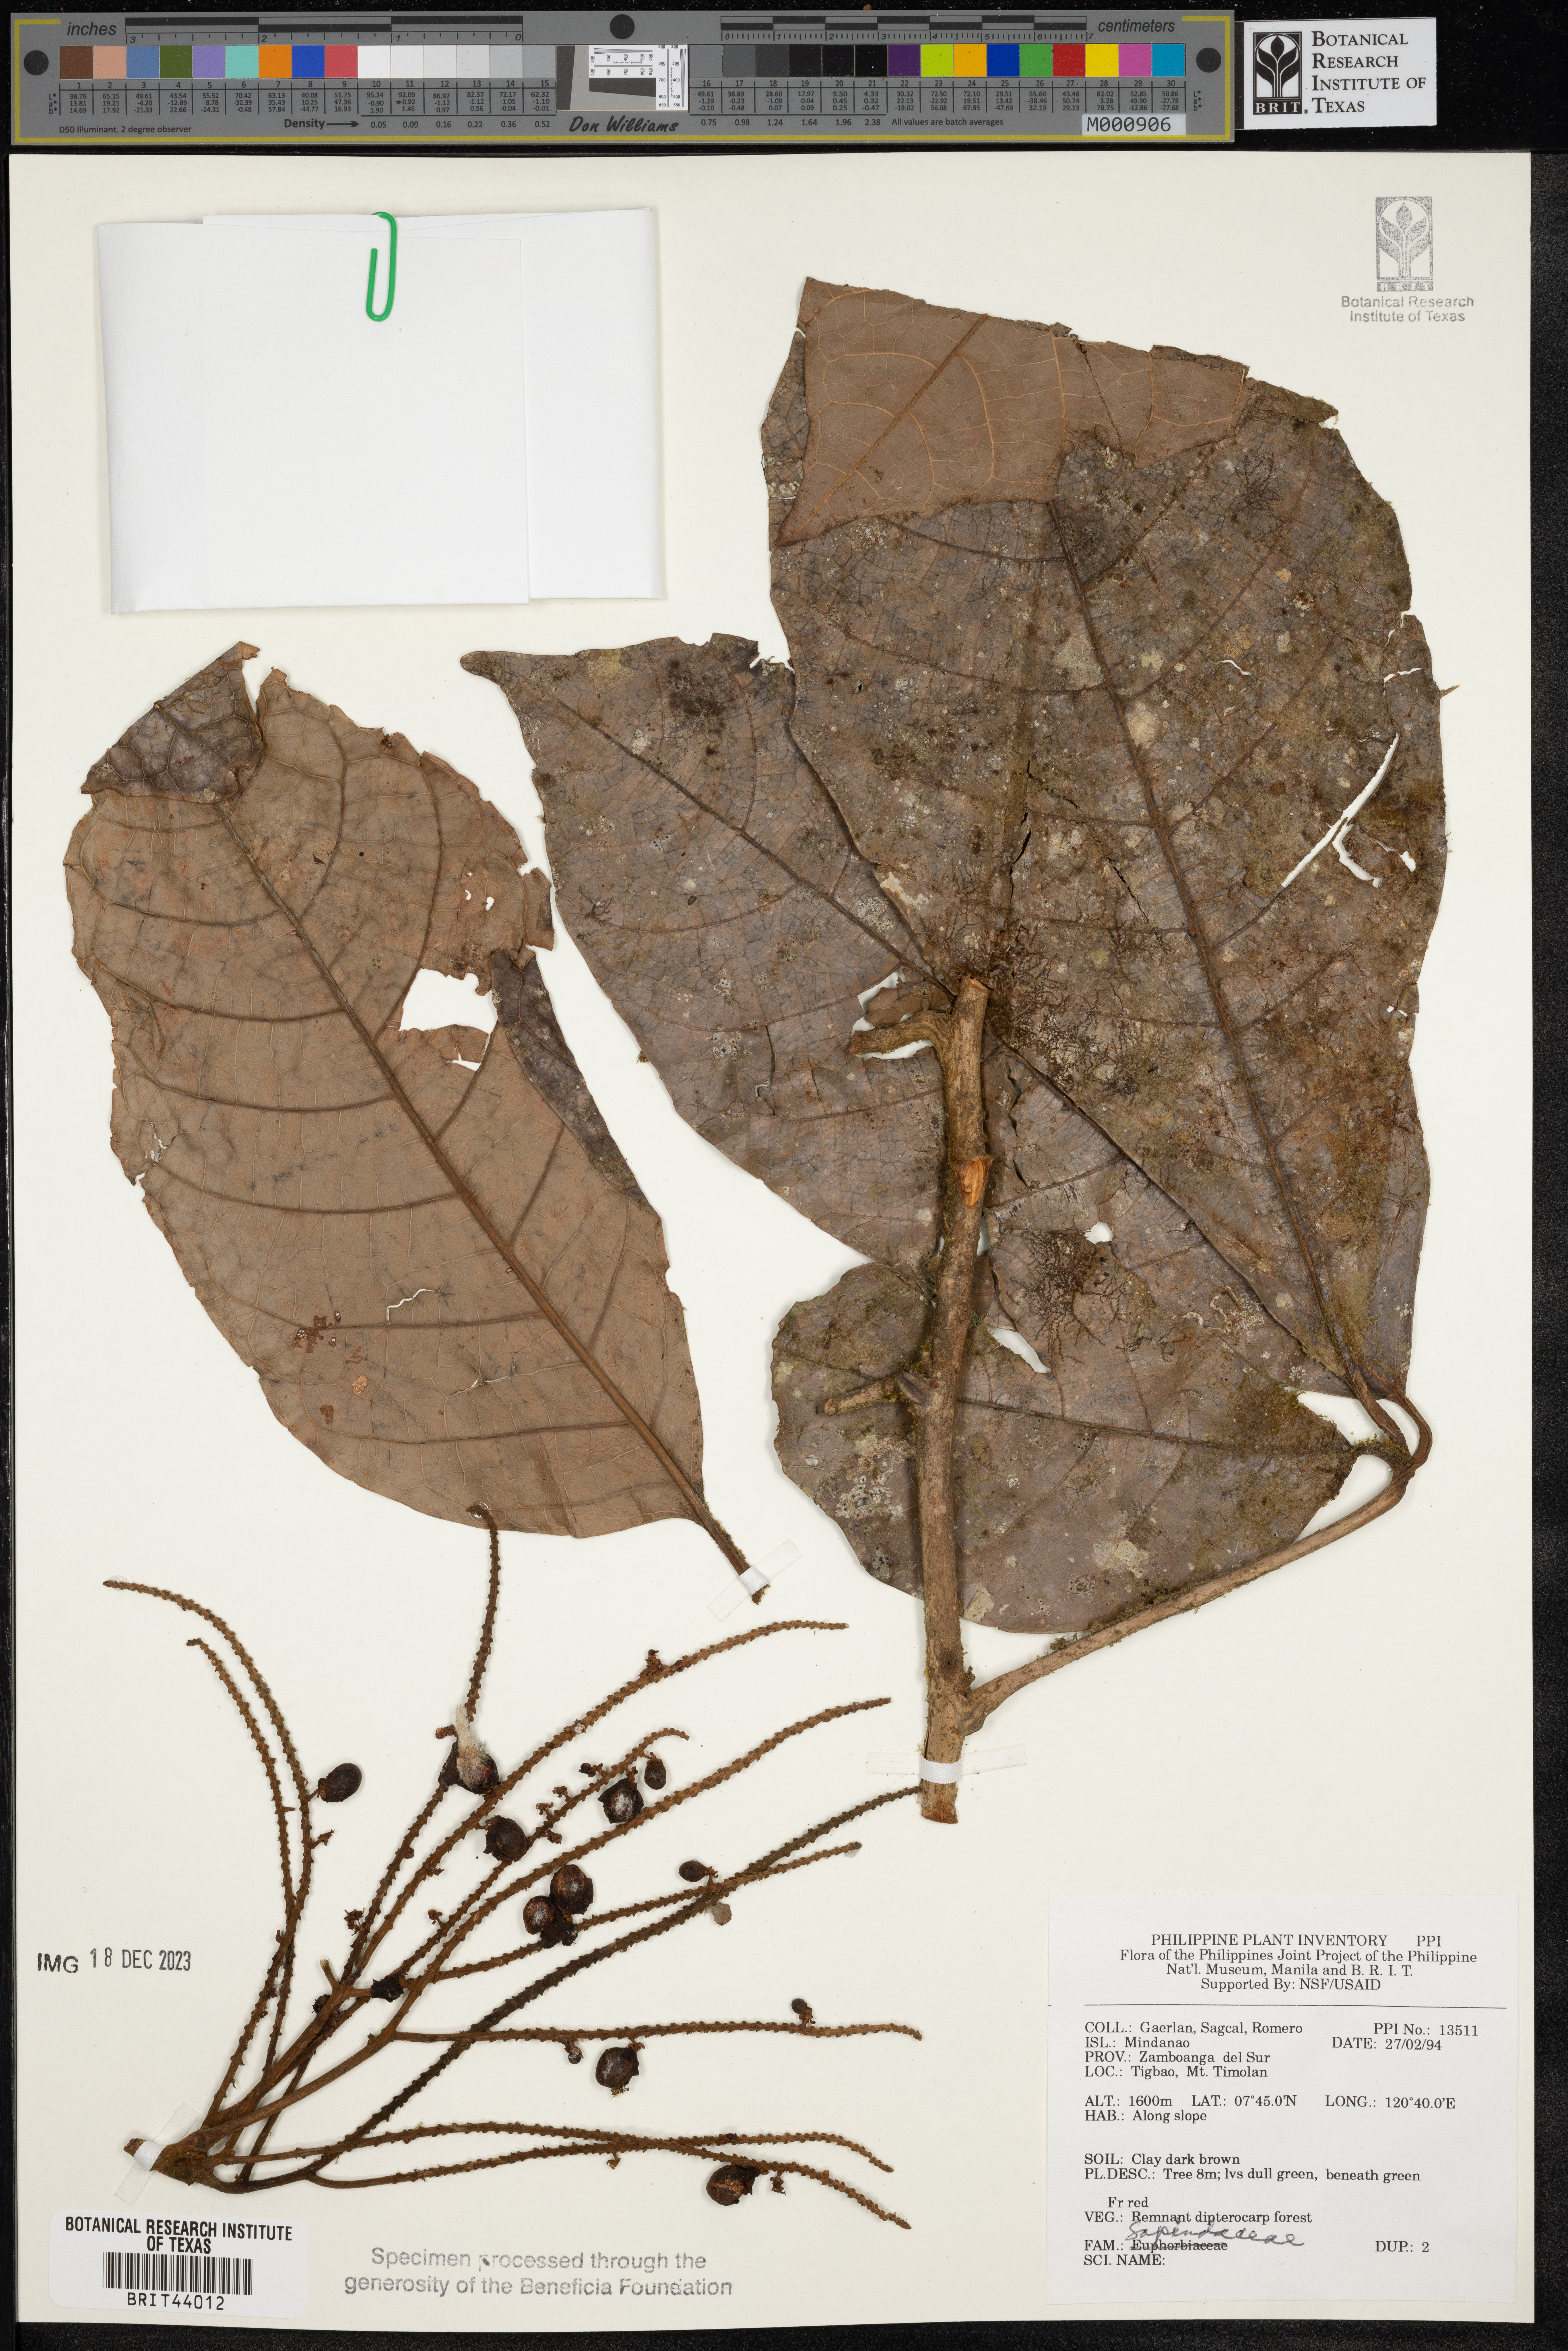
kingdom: Plantae
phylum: Tracheophyta
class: Magnoliopsida
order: Sapindales
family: Sapindaceae
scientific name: Sapindaceae
